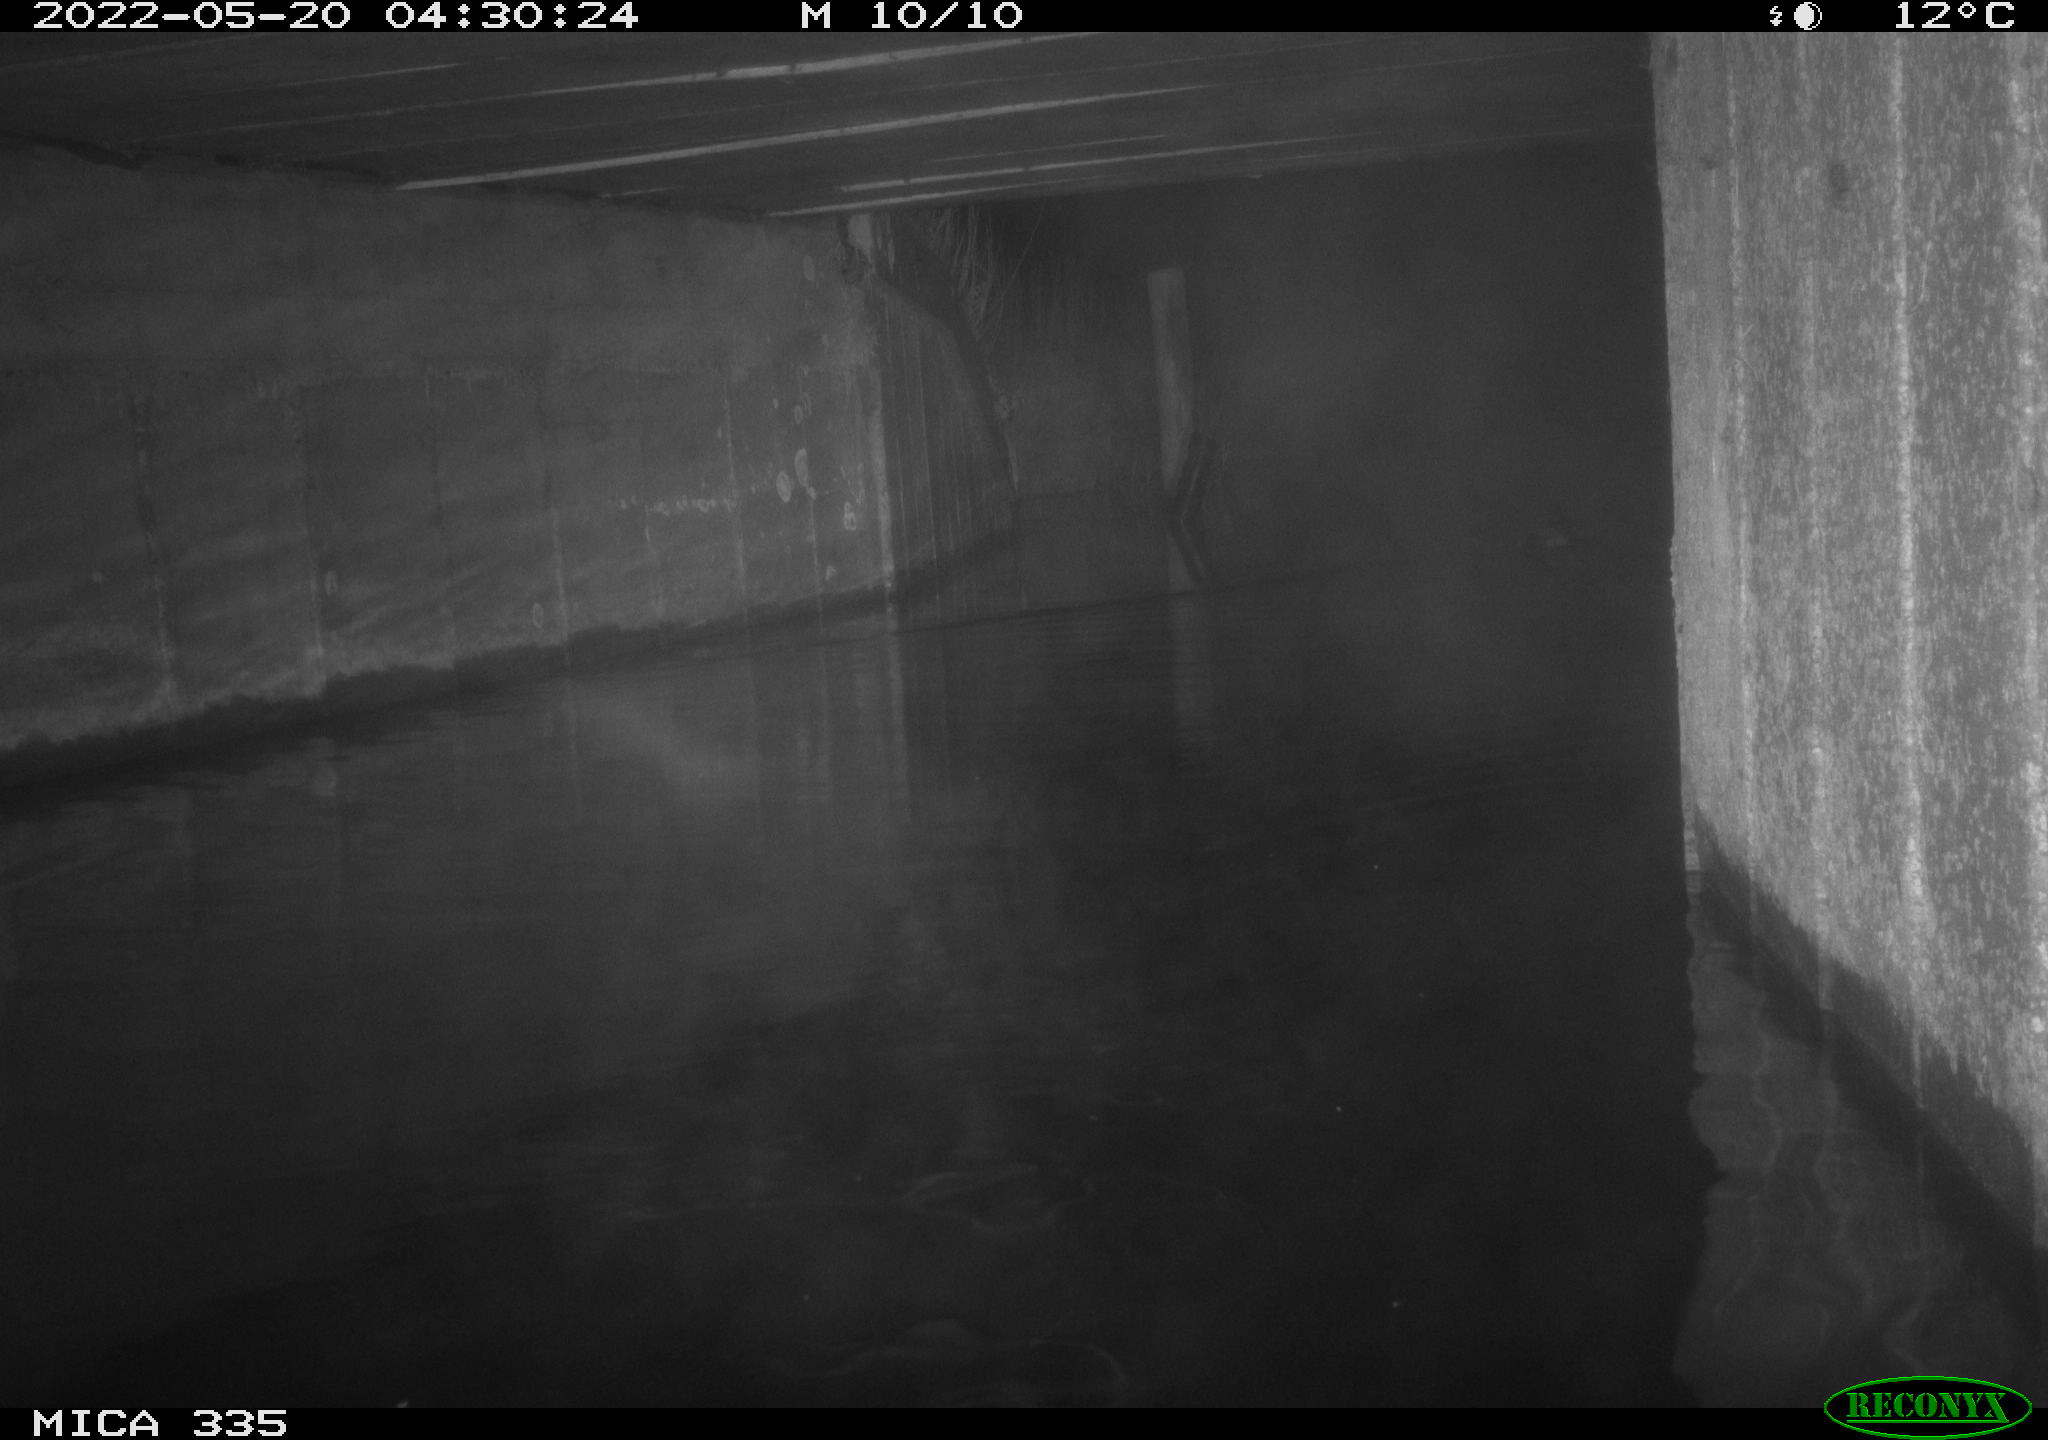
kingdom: Animalia
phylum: Chordata
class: Aves
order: Anseriformes
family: Anatidae
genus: Anas
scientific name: Anas platyrhynchos
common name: Mallard
